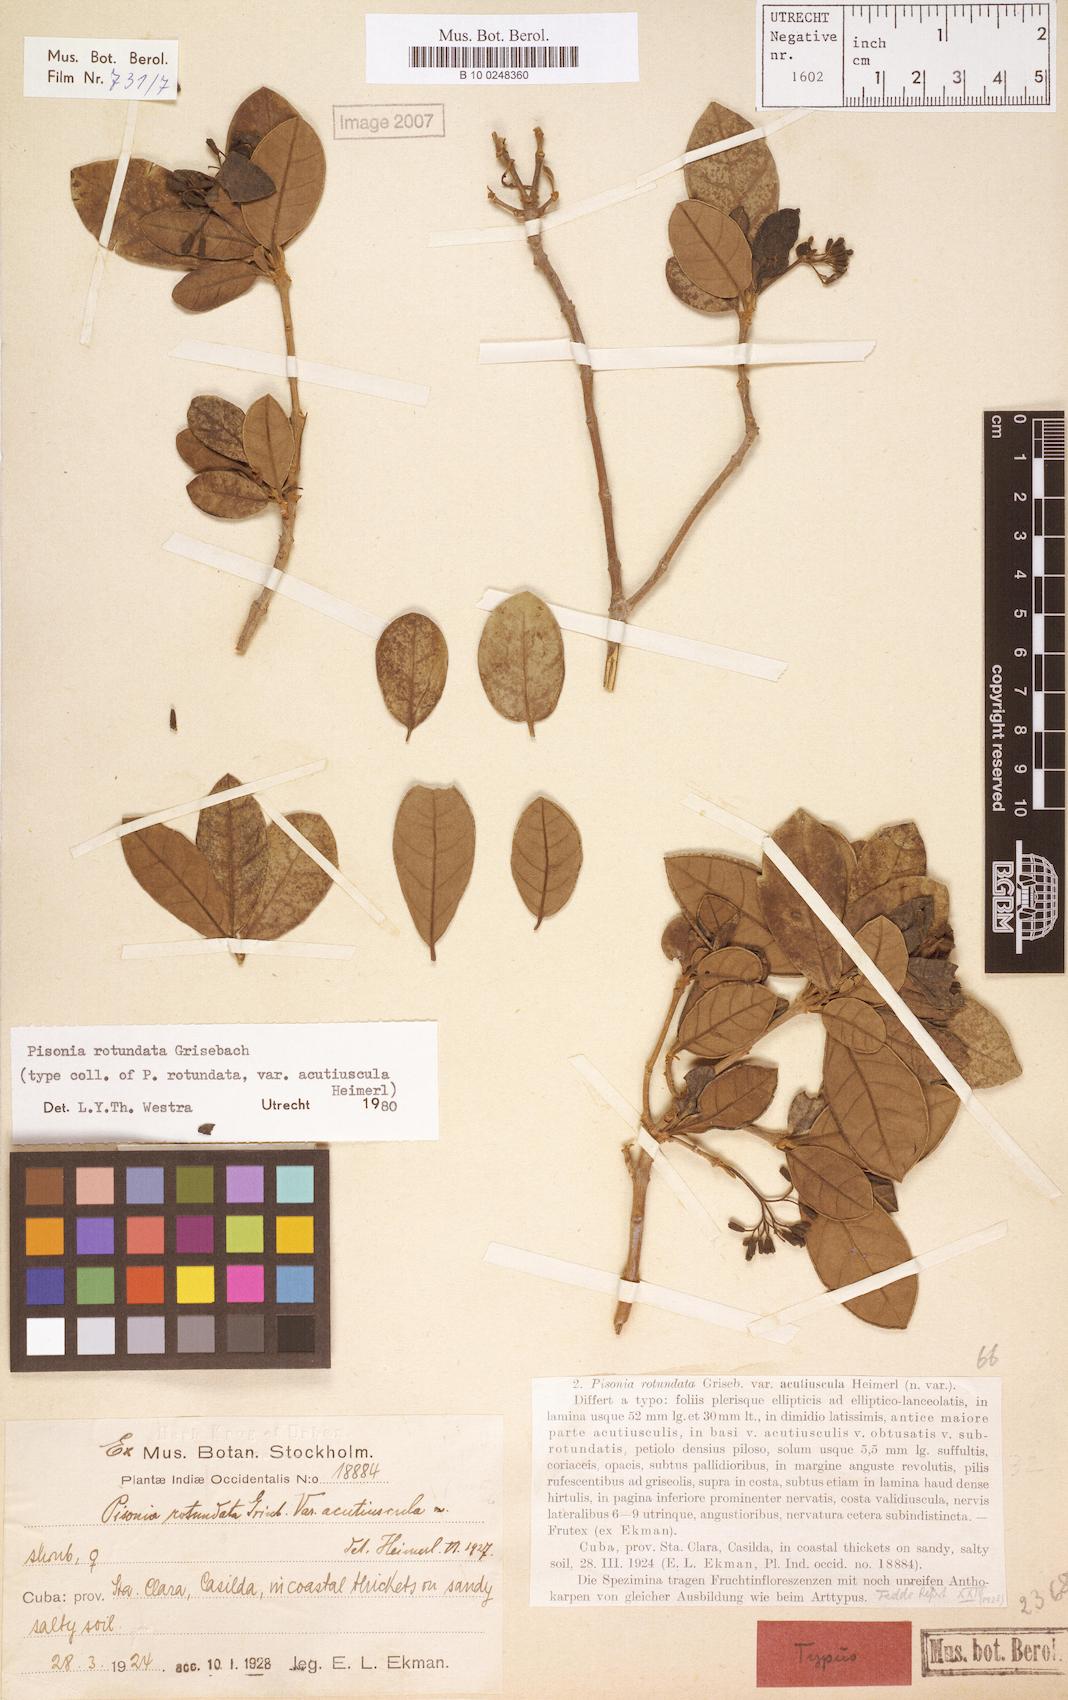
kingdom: Plantae
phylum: Tracheophyta
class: Magnoliopsida
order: Caryophyllales
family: Nyctaginaceae
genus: Pisonia
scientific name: Pisonia rotundata
